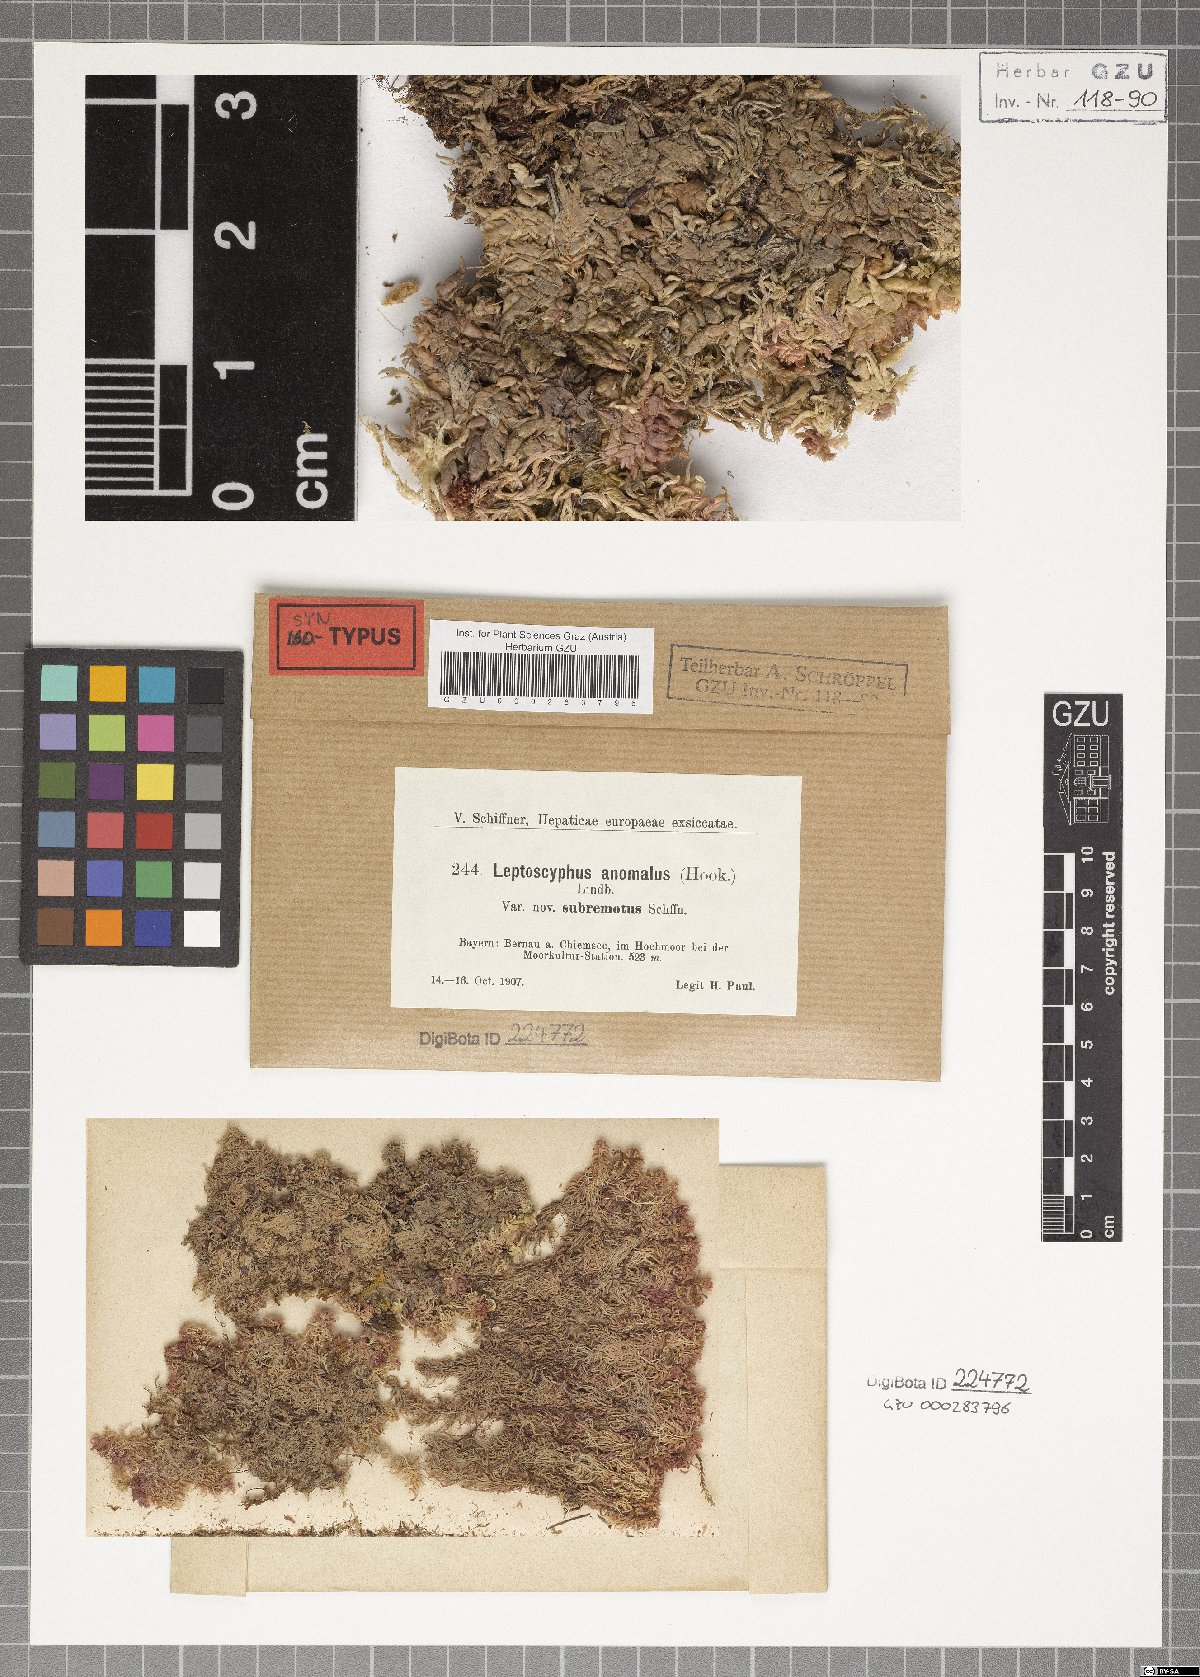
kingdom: Plantae
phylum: Marchantiophyta
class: Jungermanniopsida
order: Jungermanniales
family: Myliaceae
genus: Mylia
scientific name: Mylia anomala
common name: Anomalous flapwort
